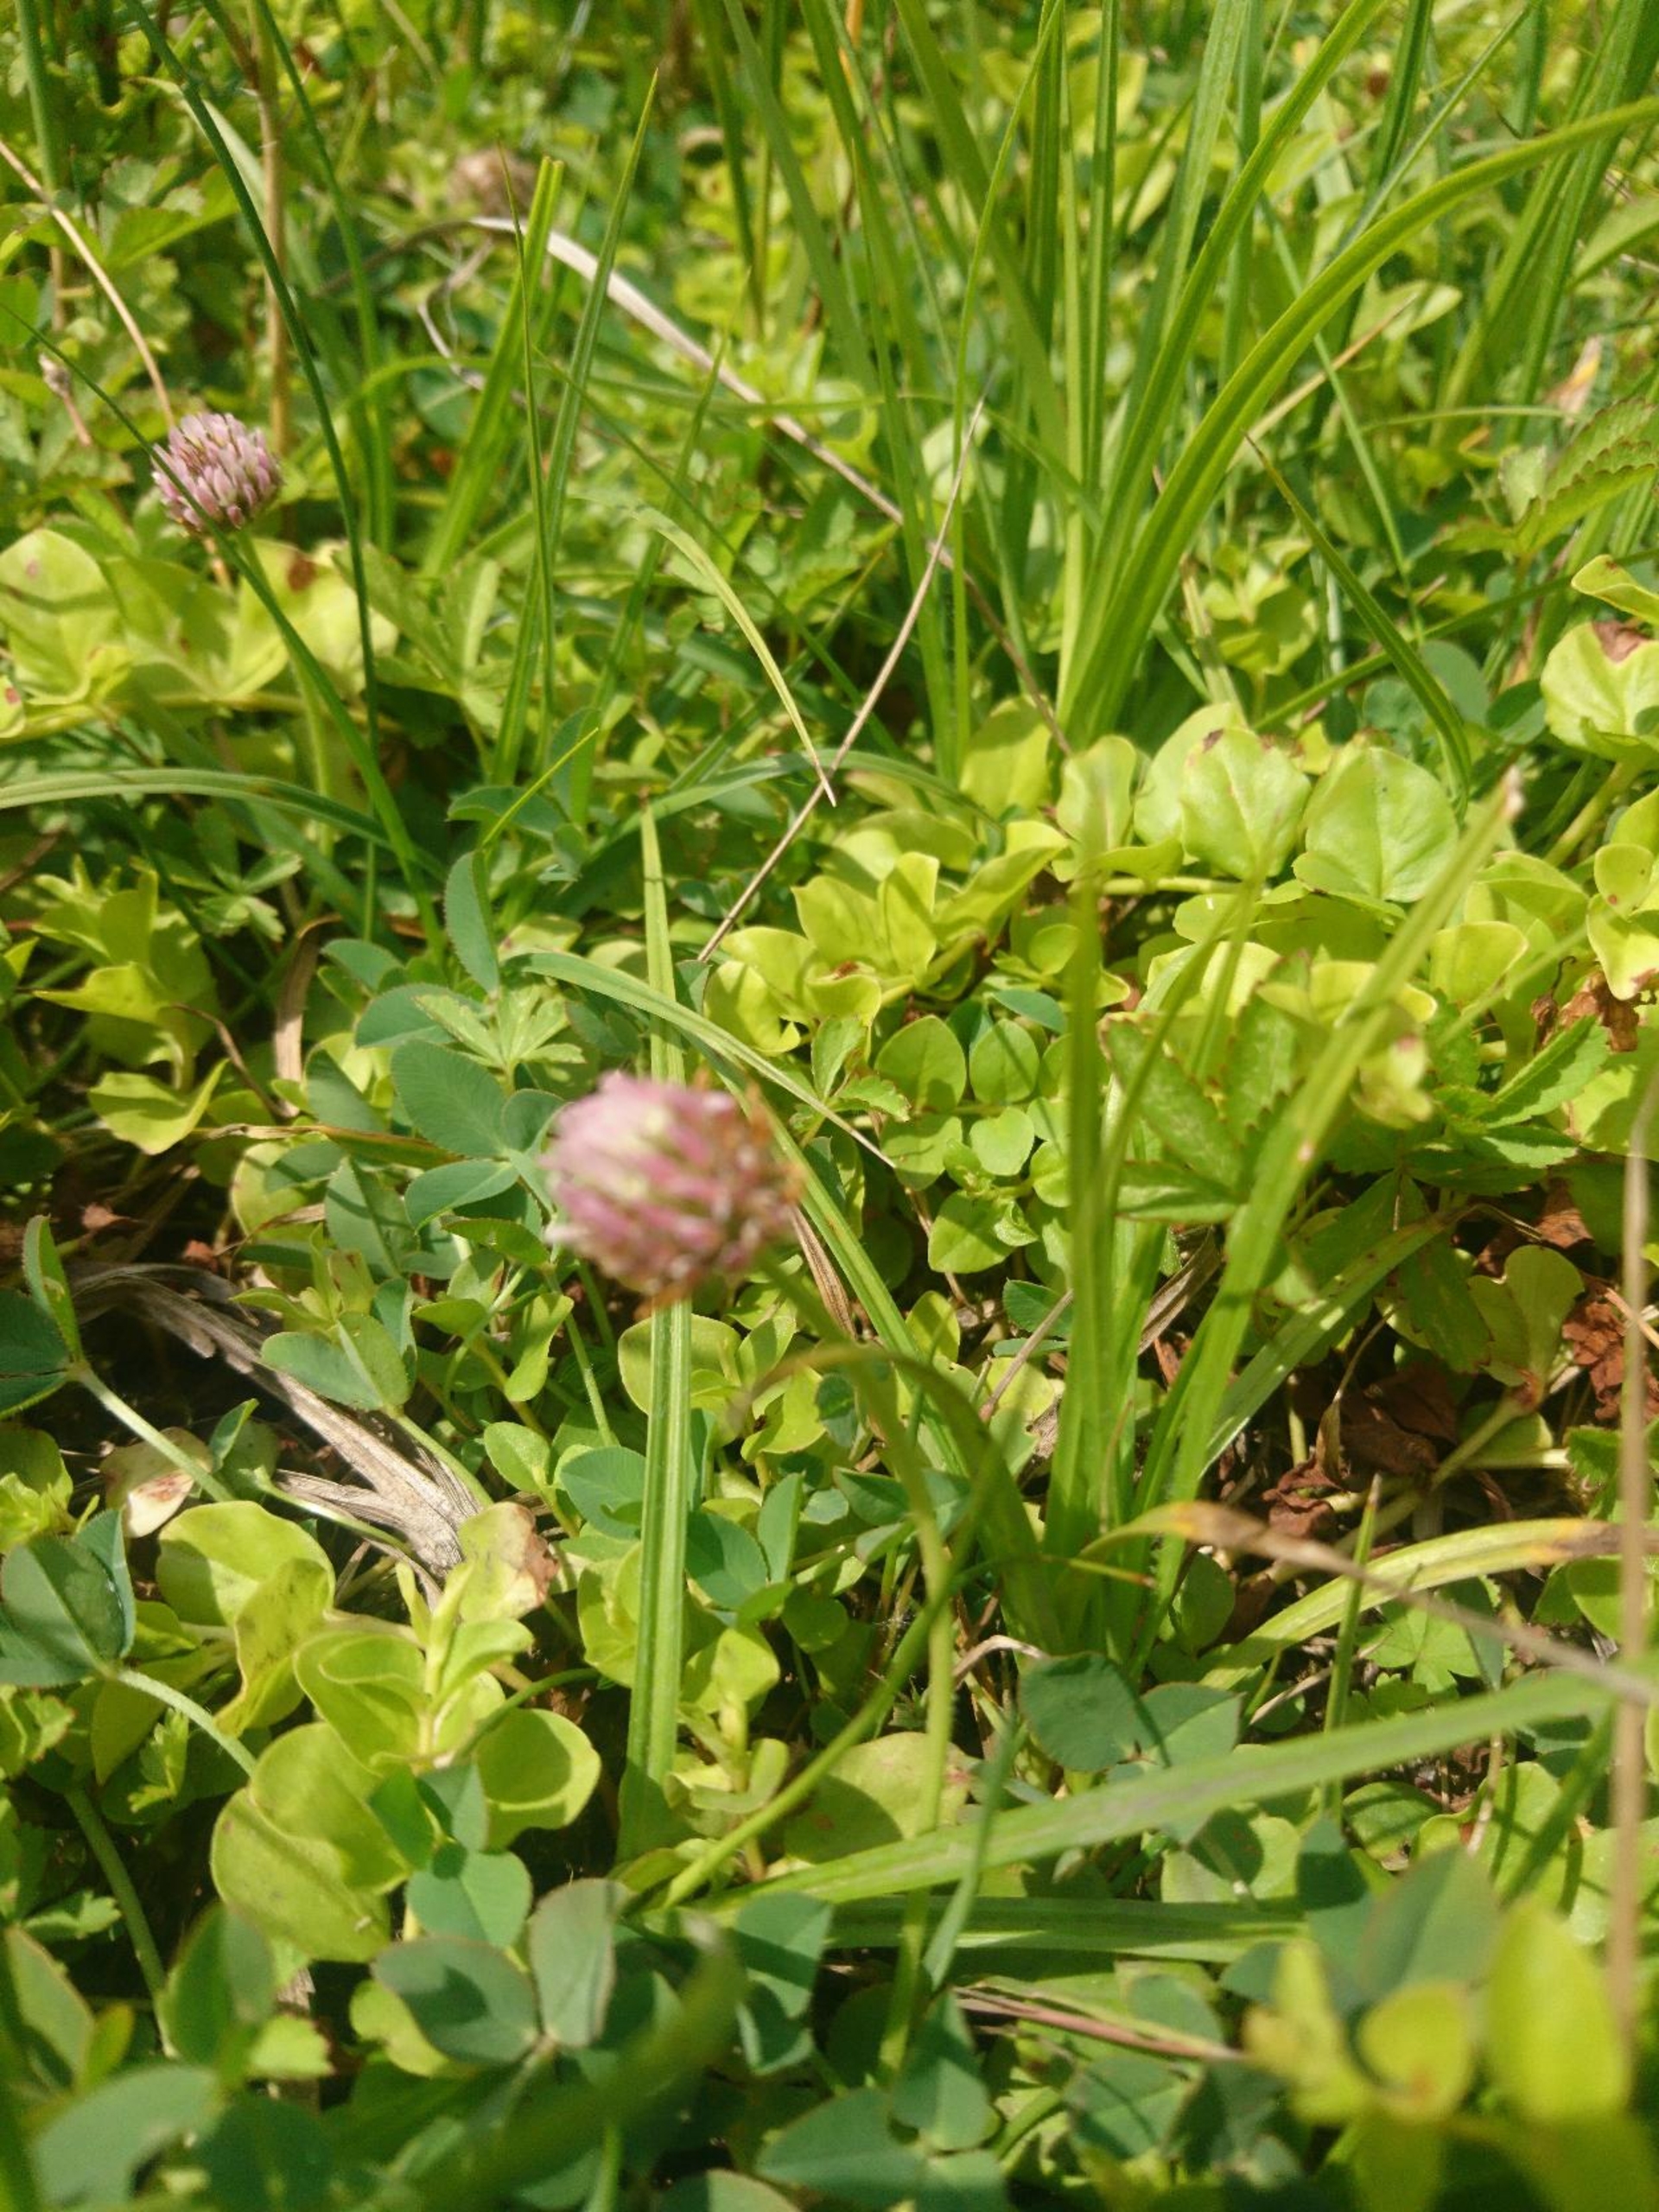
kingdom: Plantae
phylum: Tracheophyta
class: Magnoliopsida
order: Fabales
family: Fabaceae
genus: Trifolium
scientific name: Trifolium fragiferum
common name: Jordbær-kløver
